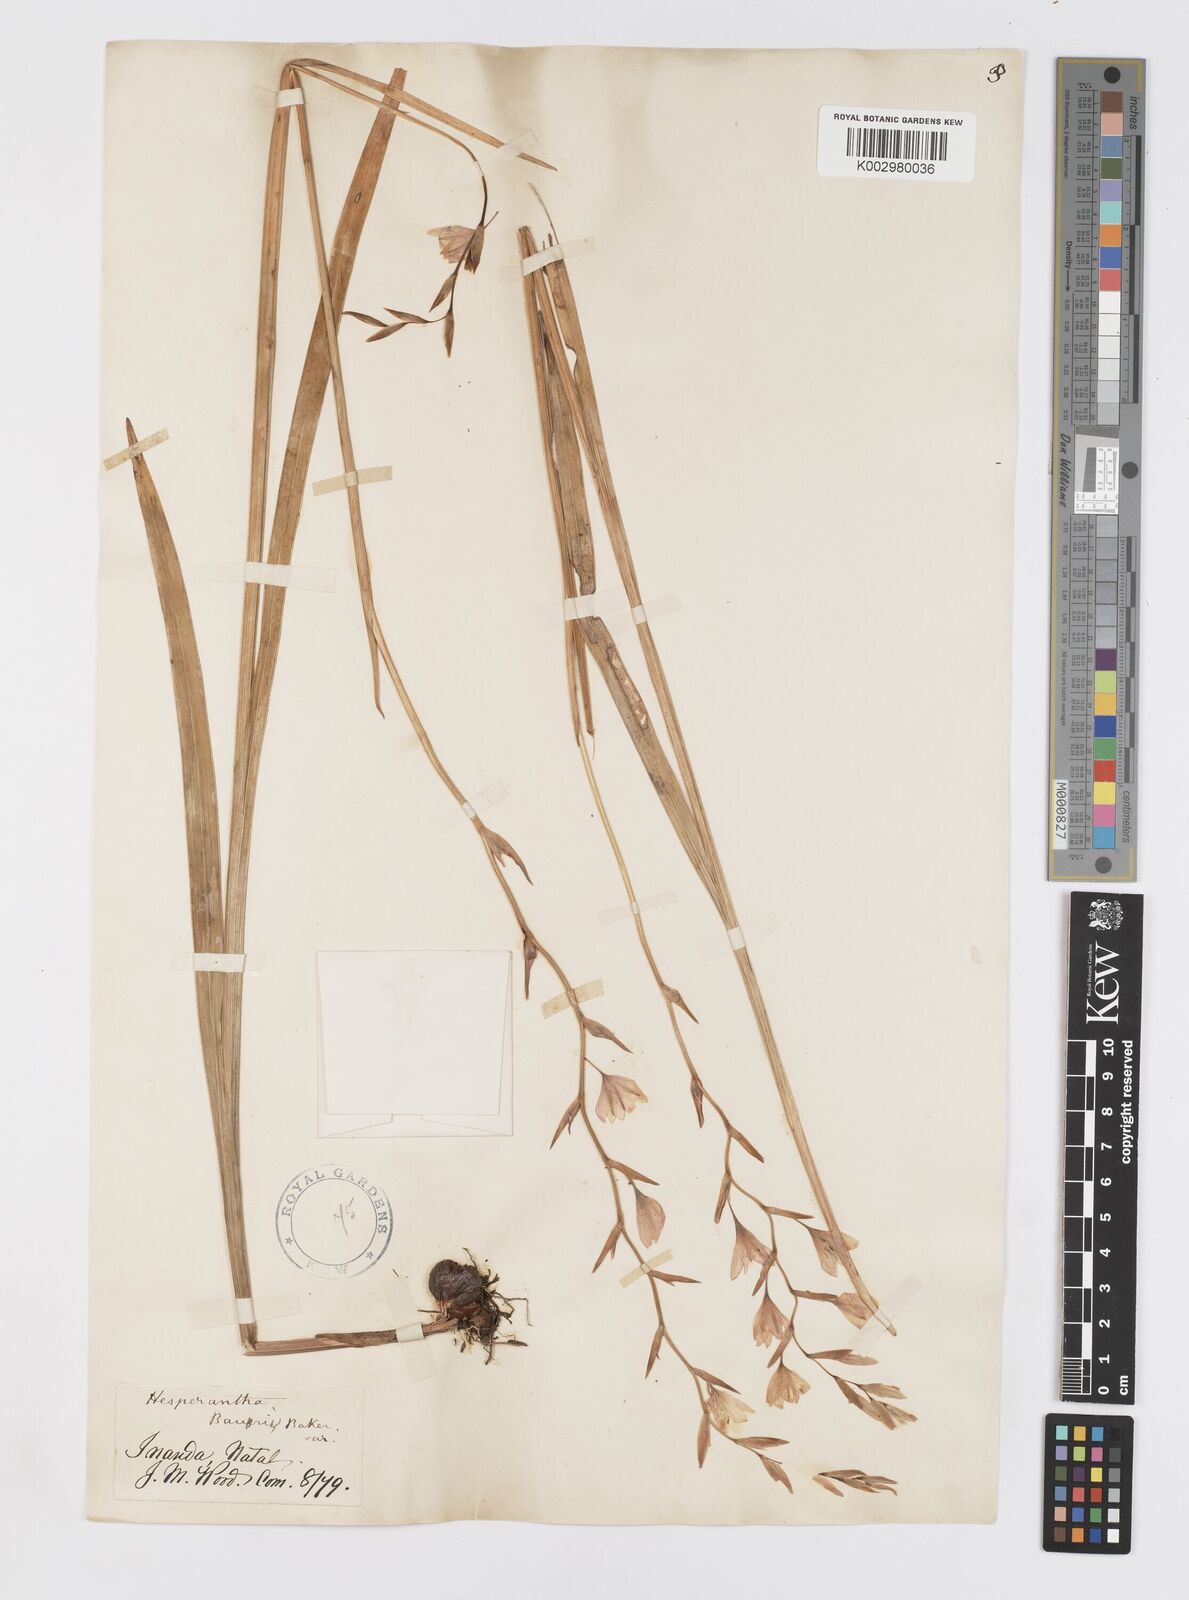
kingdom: Plantae
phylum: Tracheophyta
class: Liliopsida
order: Asparagales
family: Iridaceae
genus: Hesperantha
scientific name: Hesperantha baurii
